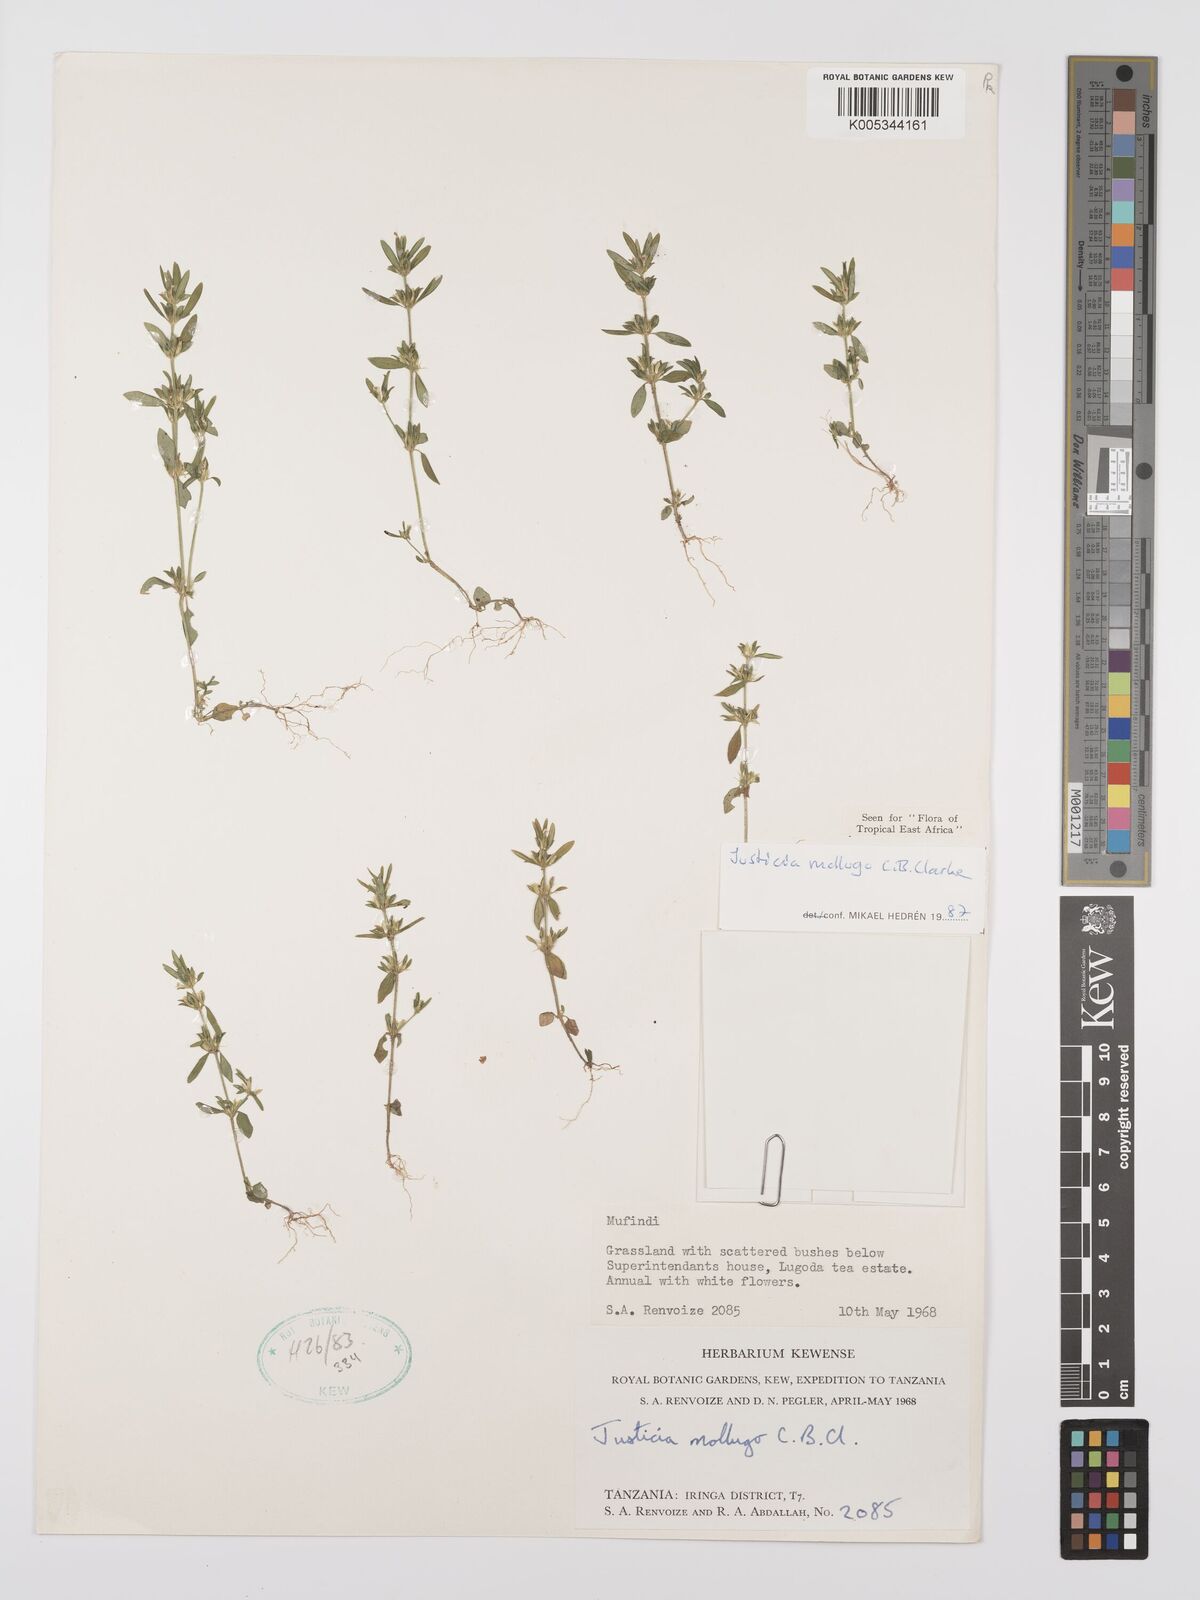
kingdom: Plantae
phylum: Tracheophyta
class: Magnoliopsida
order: Lamiales
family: Acanthaceae
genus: Justicia
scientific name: Justicia mollugo
